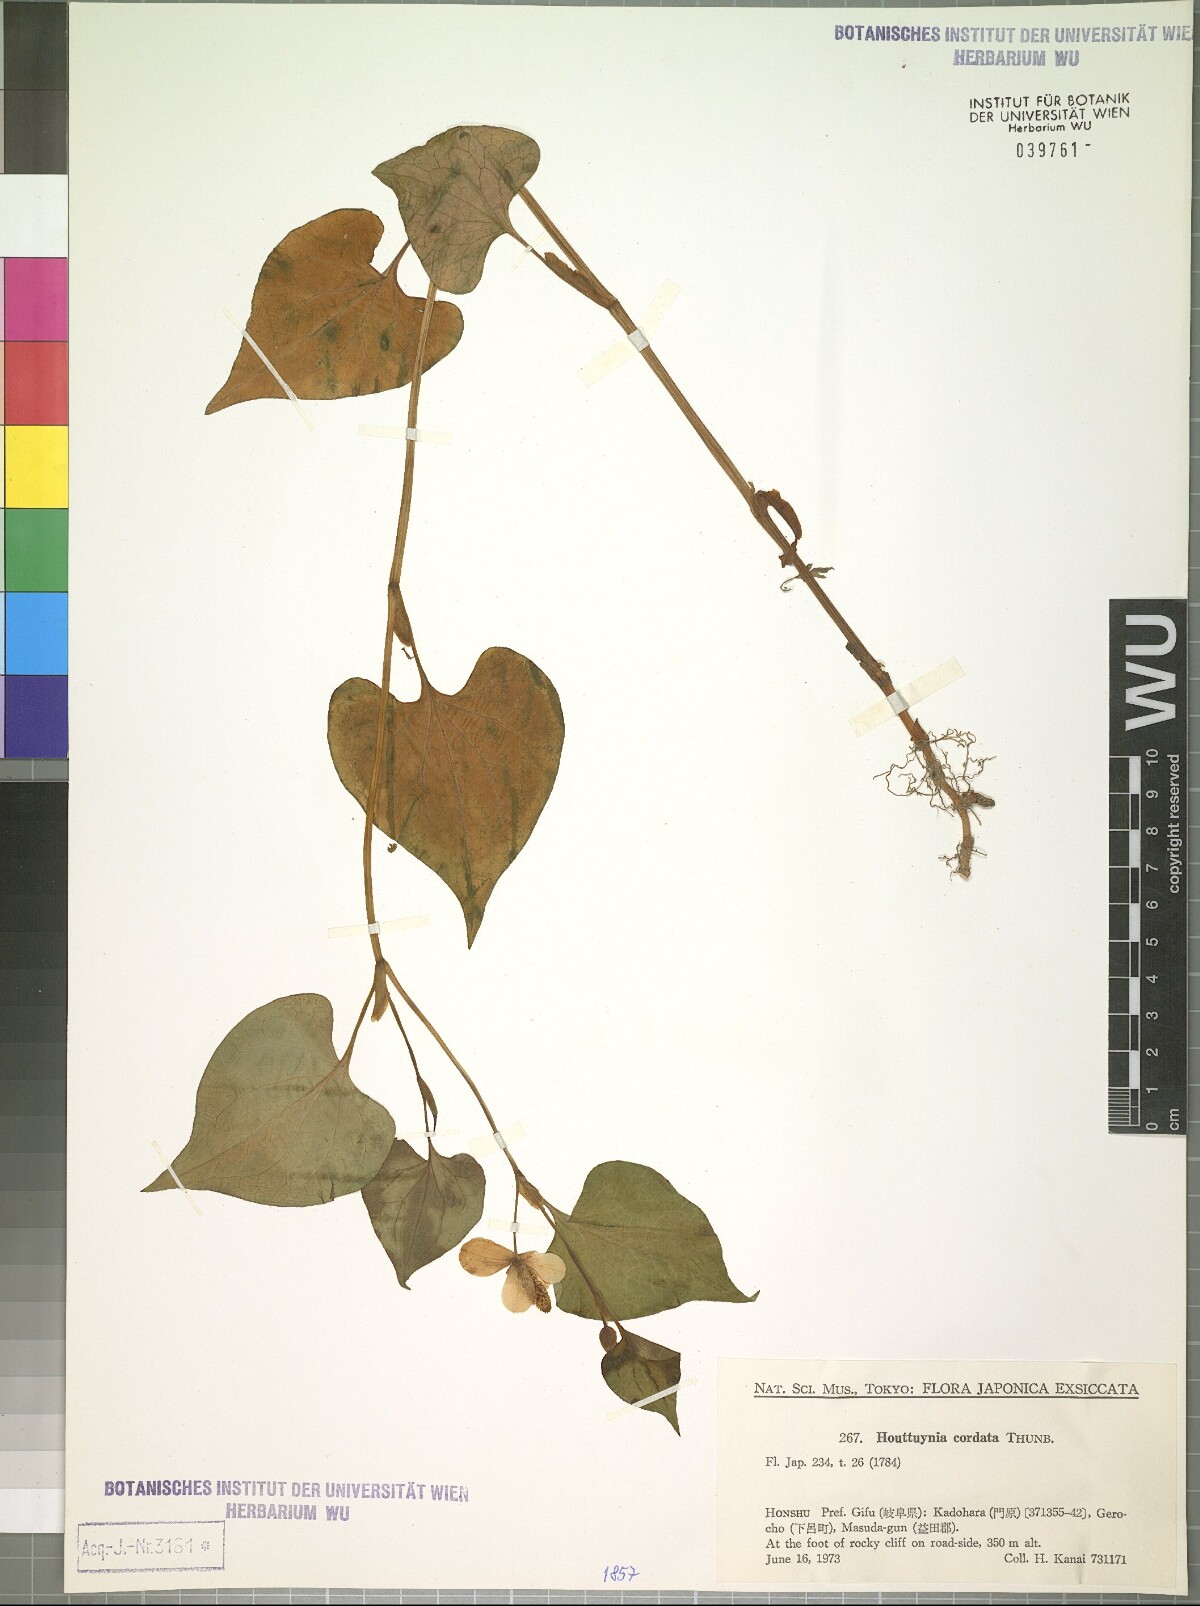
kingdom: Plantae
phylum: Tracheophyta
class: Magnoliopsida
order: Piperales
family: Saururaceae
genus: Houttuynia
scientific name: Houttuynia cordata
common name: Chameleon
